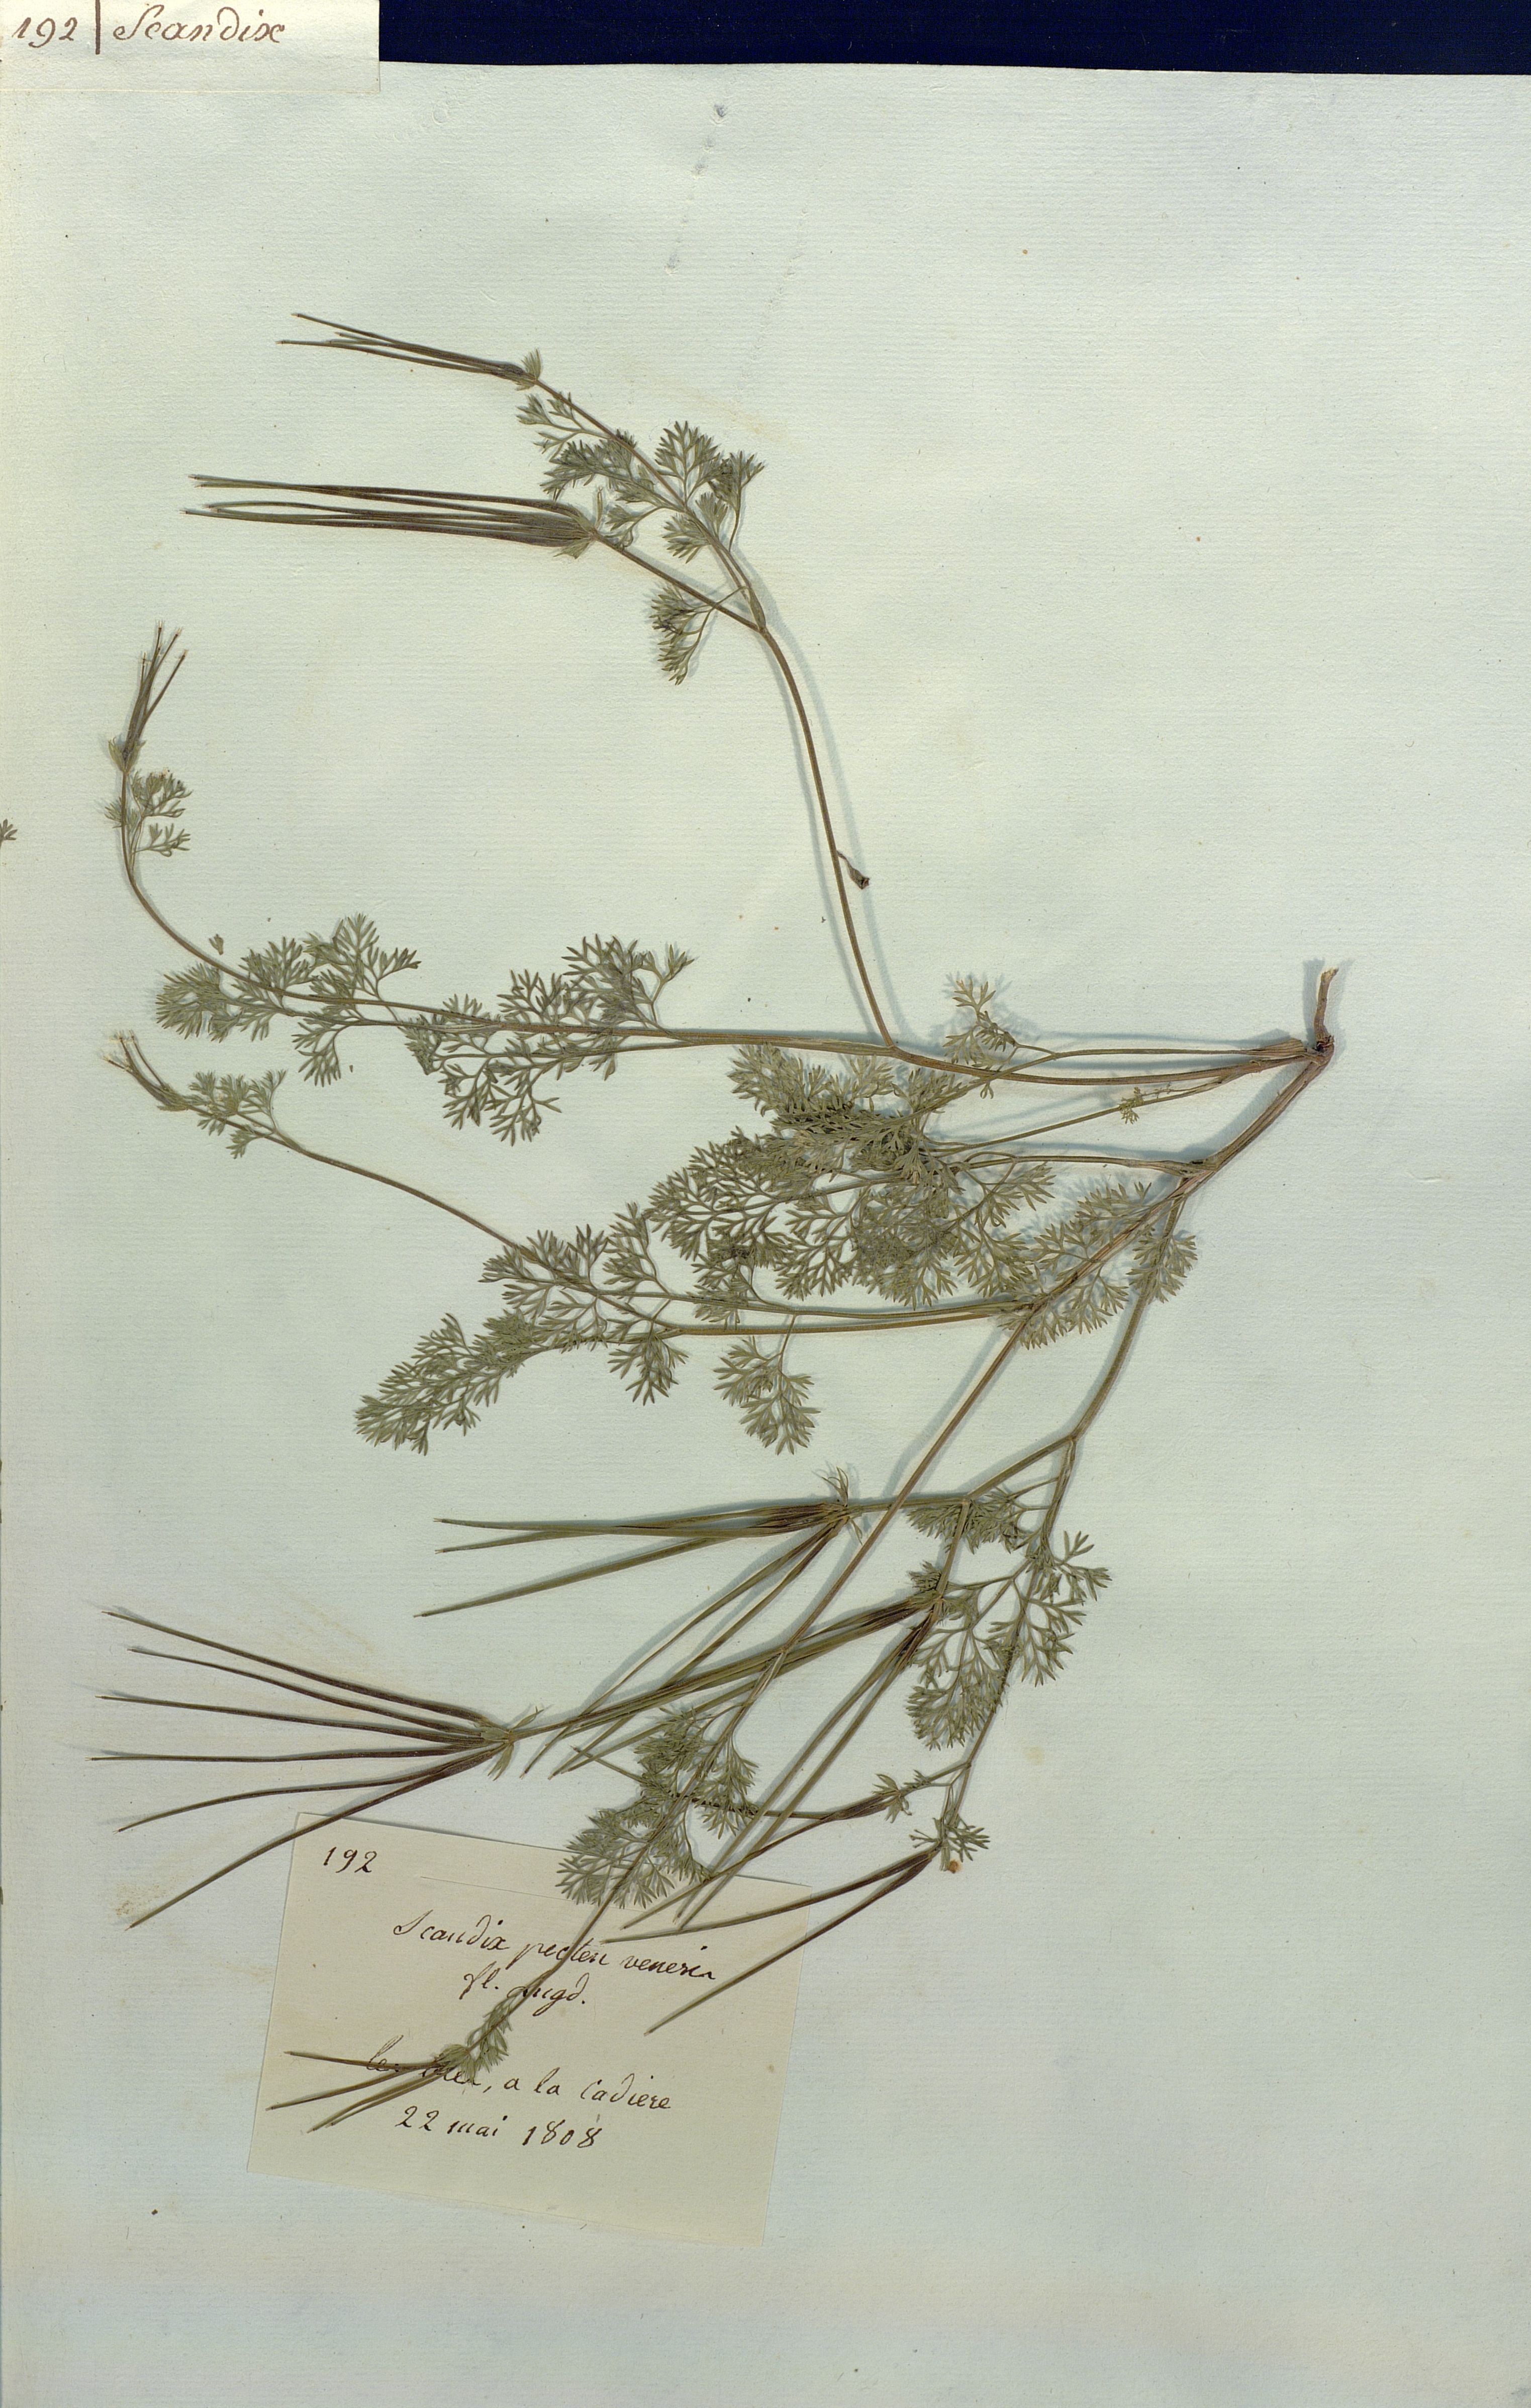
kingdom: Plantae
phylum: Tracheophyta
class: Magnoliopsida
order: Apiales
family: Apiaceae
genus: Scandix
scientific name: Scandix pecten-veneris
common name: Shepherd's-needle
